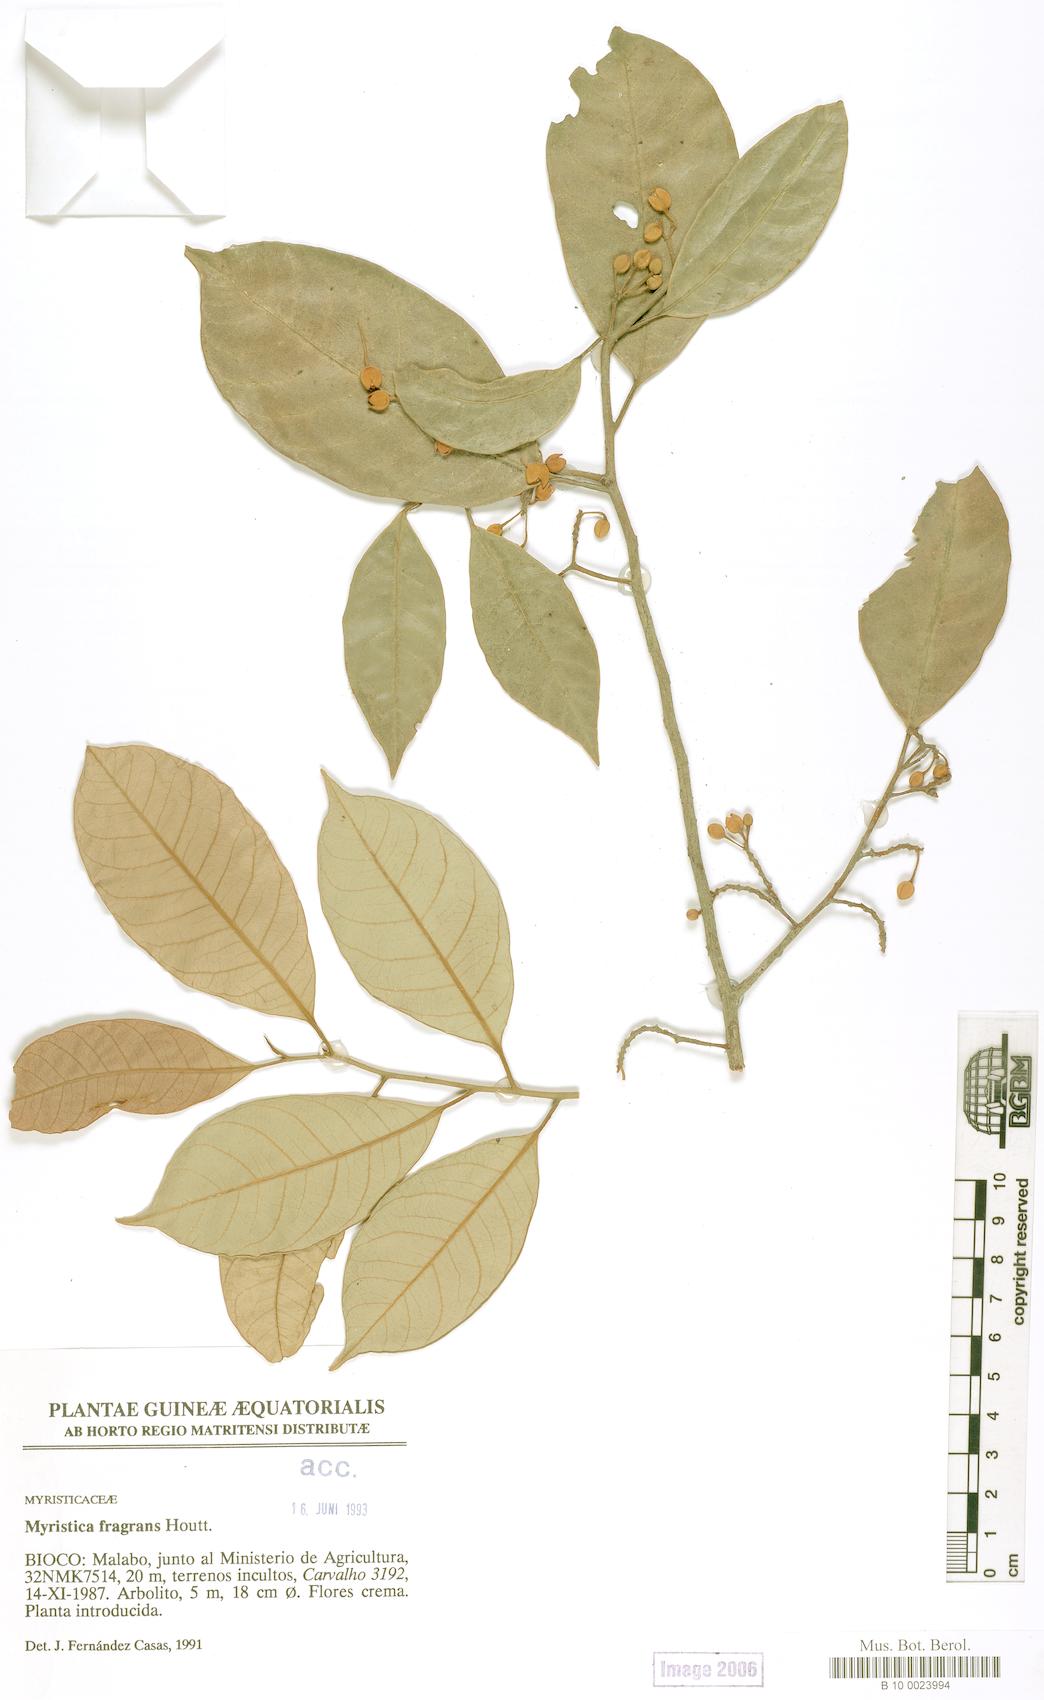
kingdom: Plantae
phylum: Tracheophyta
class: Magnoliopsida
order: Magnoliales
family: Myristicaceae
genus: Myristica
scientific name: Myristica fragrans
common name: Nutmeg
